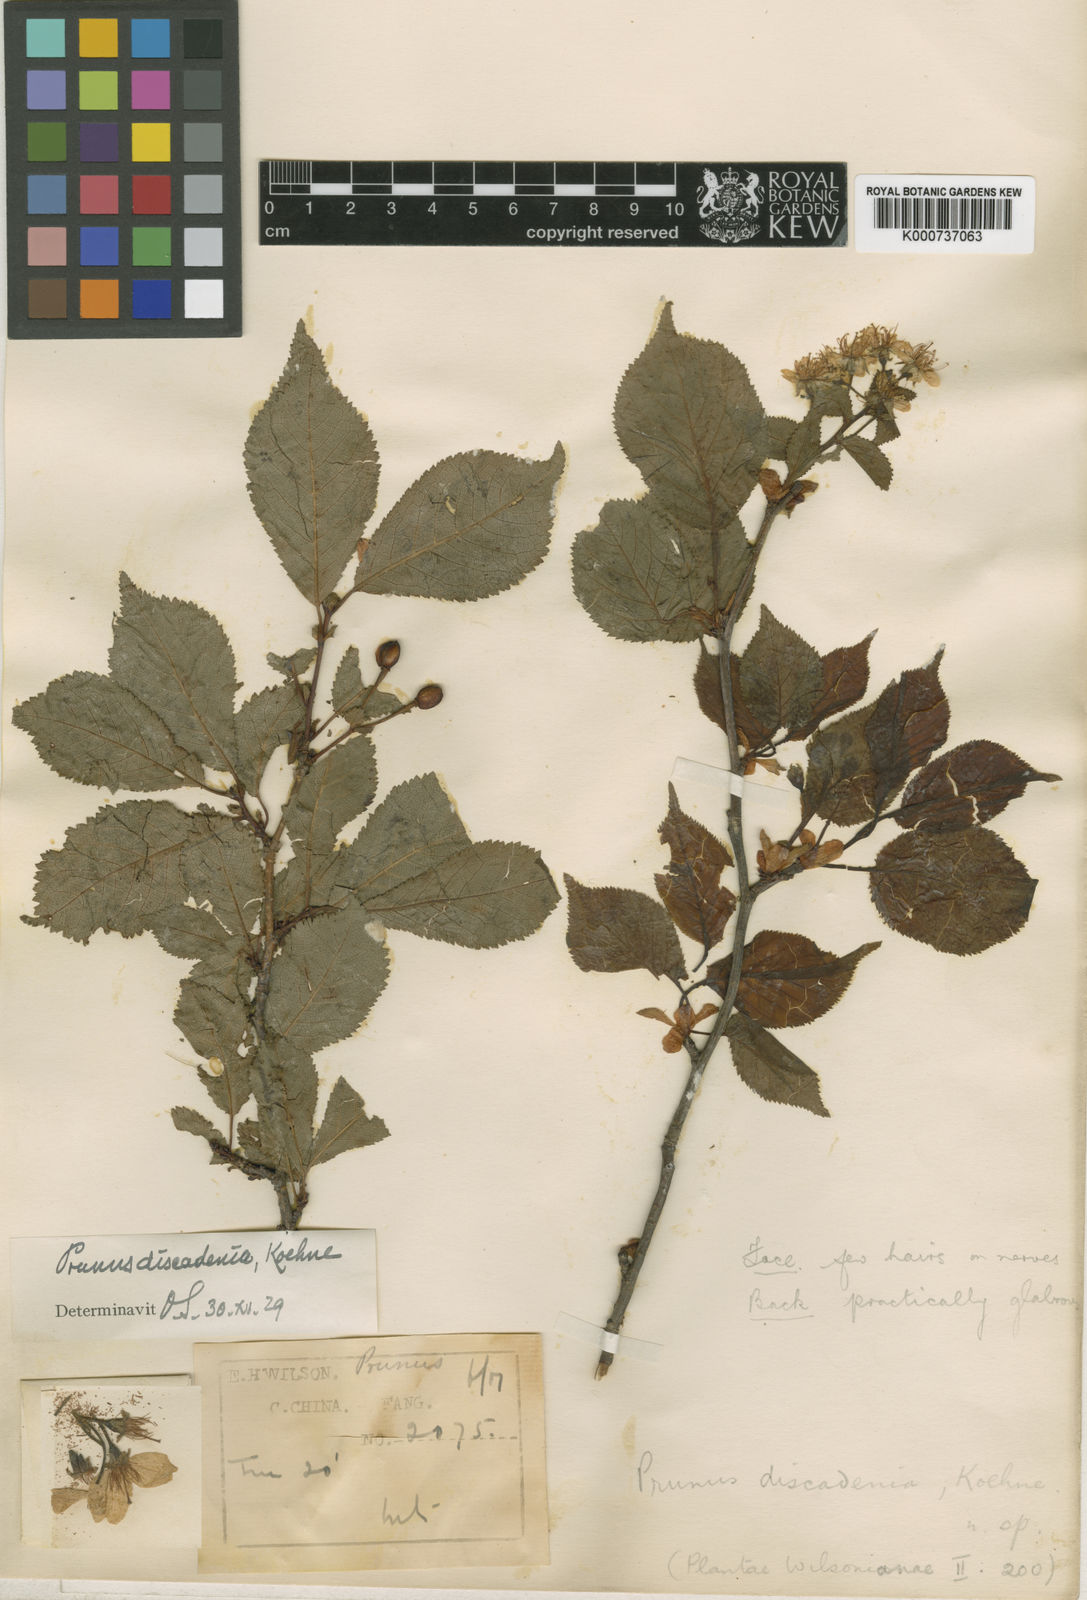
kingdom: Plantae
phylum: Tracheophyta
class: Magnoliopsida
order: Rosales
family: Rosaceae
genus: Prunus
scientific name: Prunus discadenia
